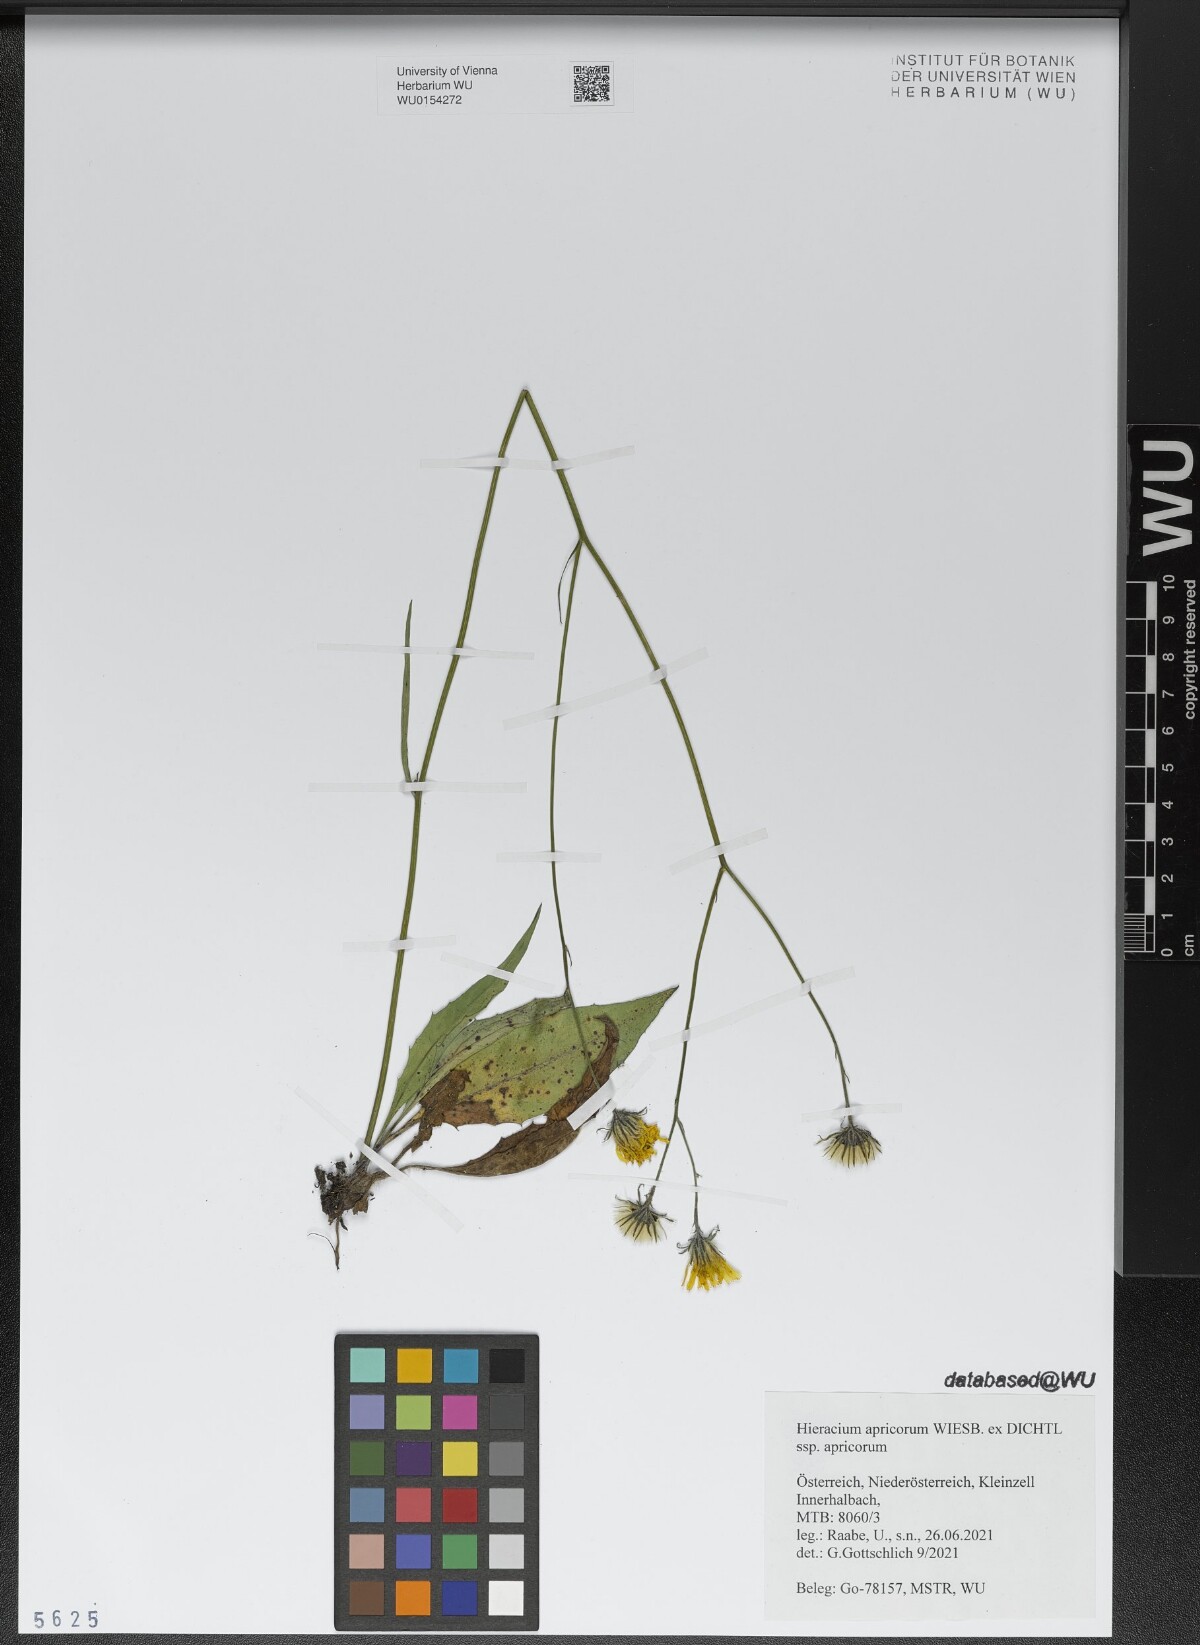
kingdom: Plantae
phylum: Tracheophyta
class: Magnoliopsida
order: Asterales
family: Asteraceae
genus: Hieracium
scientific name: Hieracium apricorum
